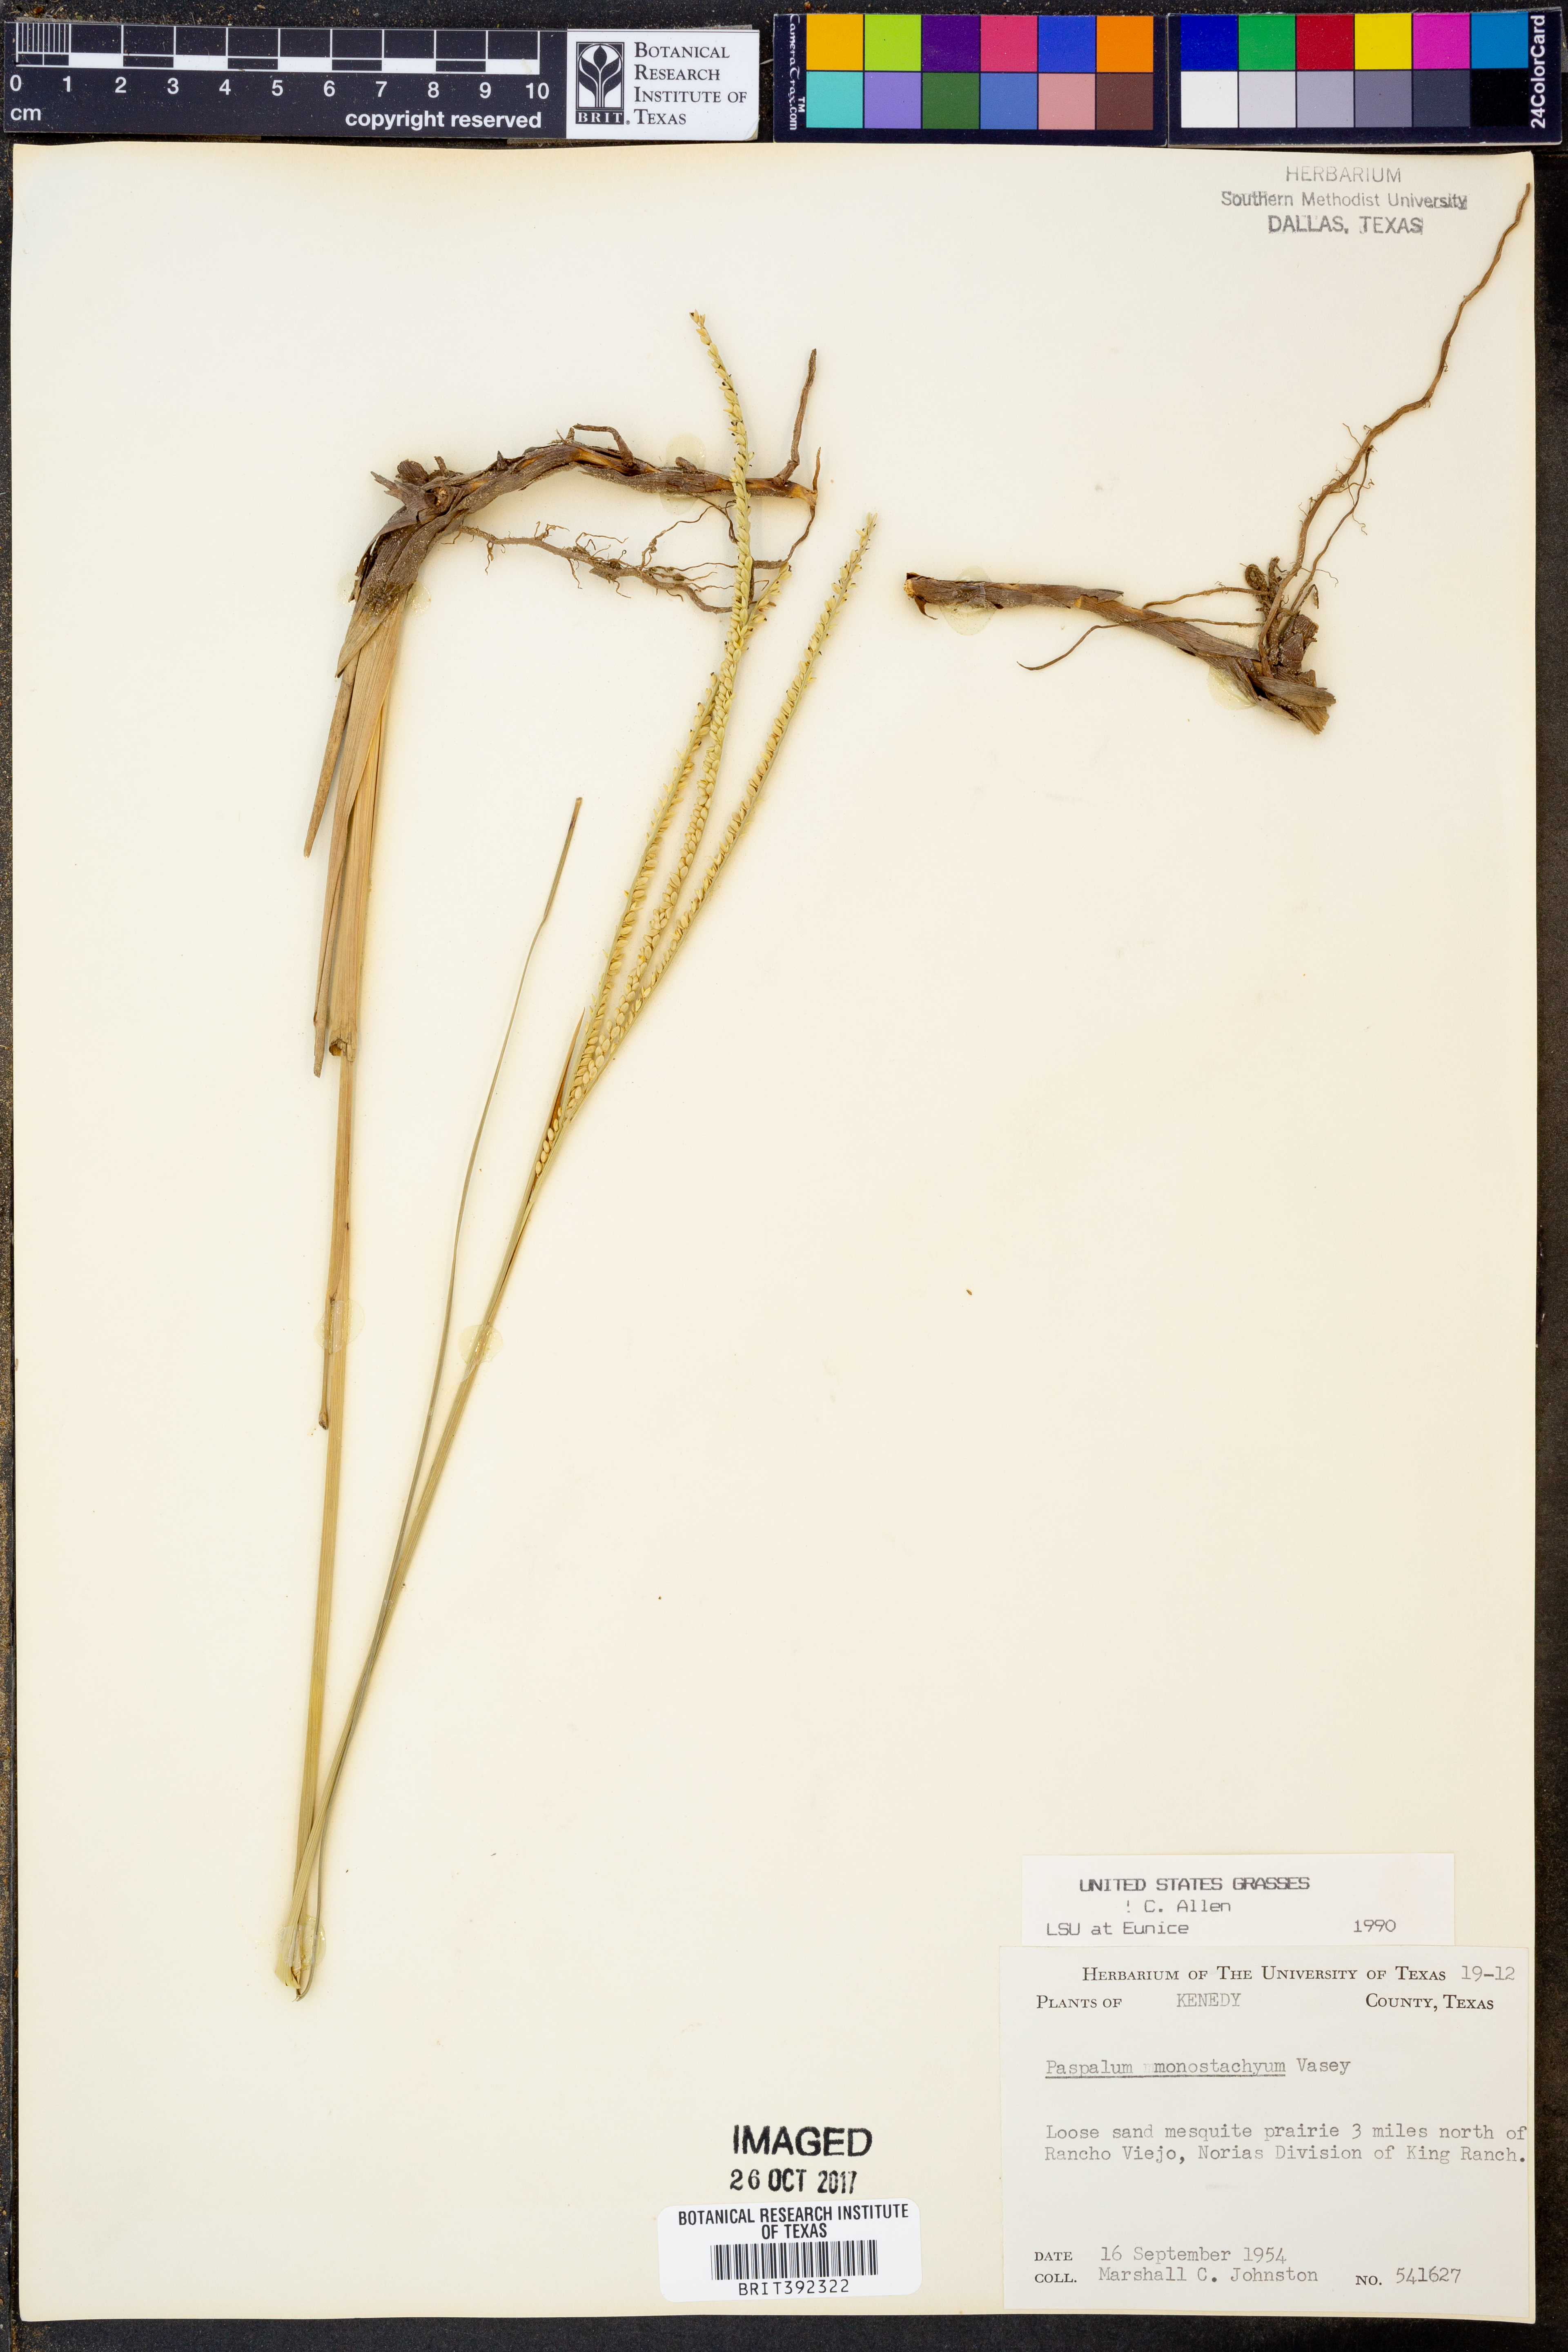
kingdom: Plantae
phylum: Tracheophyta
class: Liliopsida
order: Poales
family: Poaceae
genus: Paspalum
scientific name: Paspalum monostachyum
